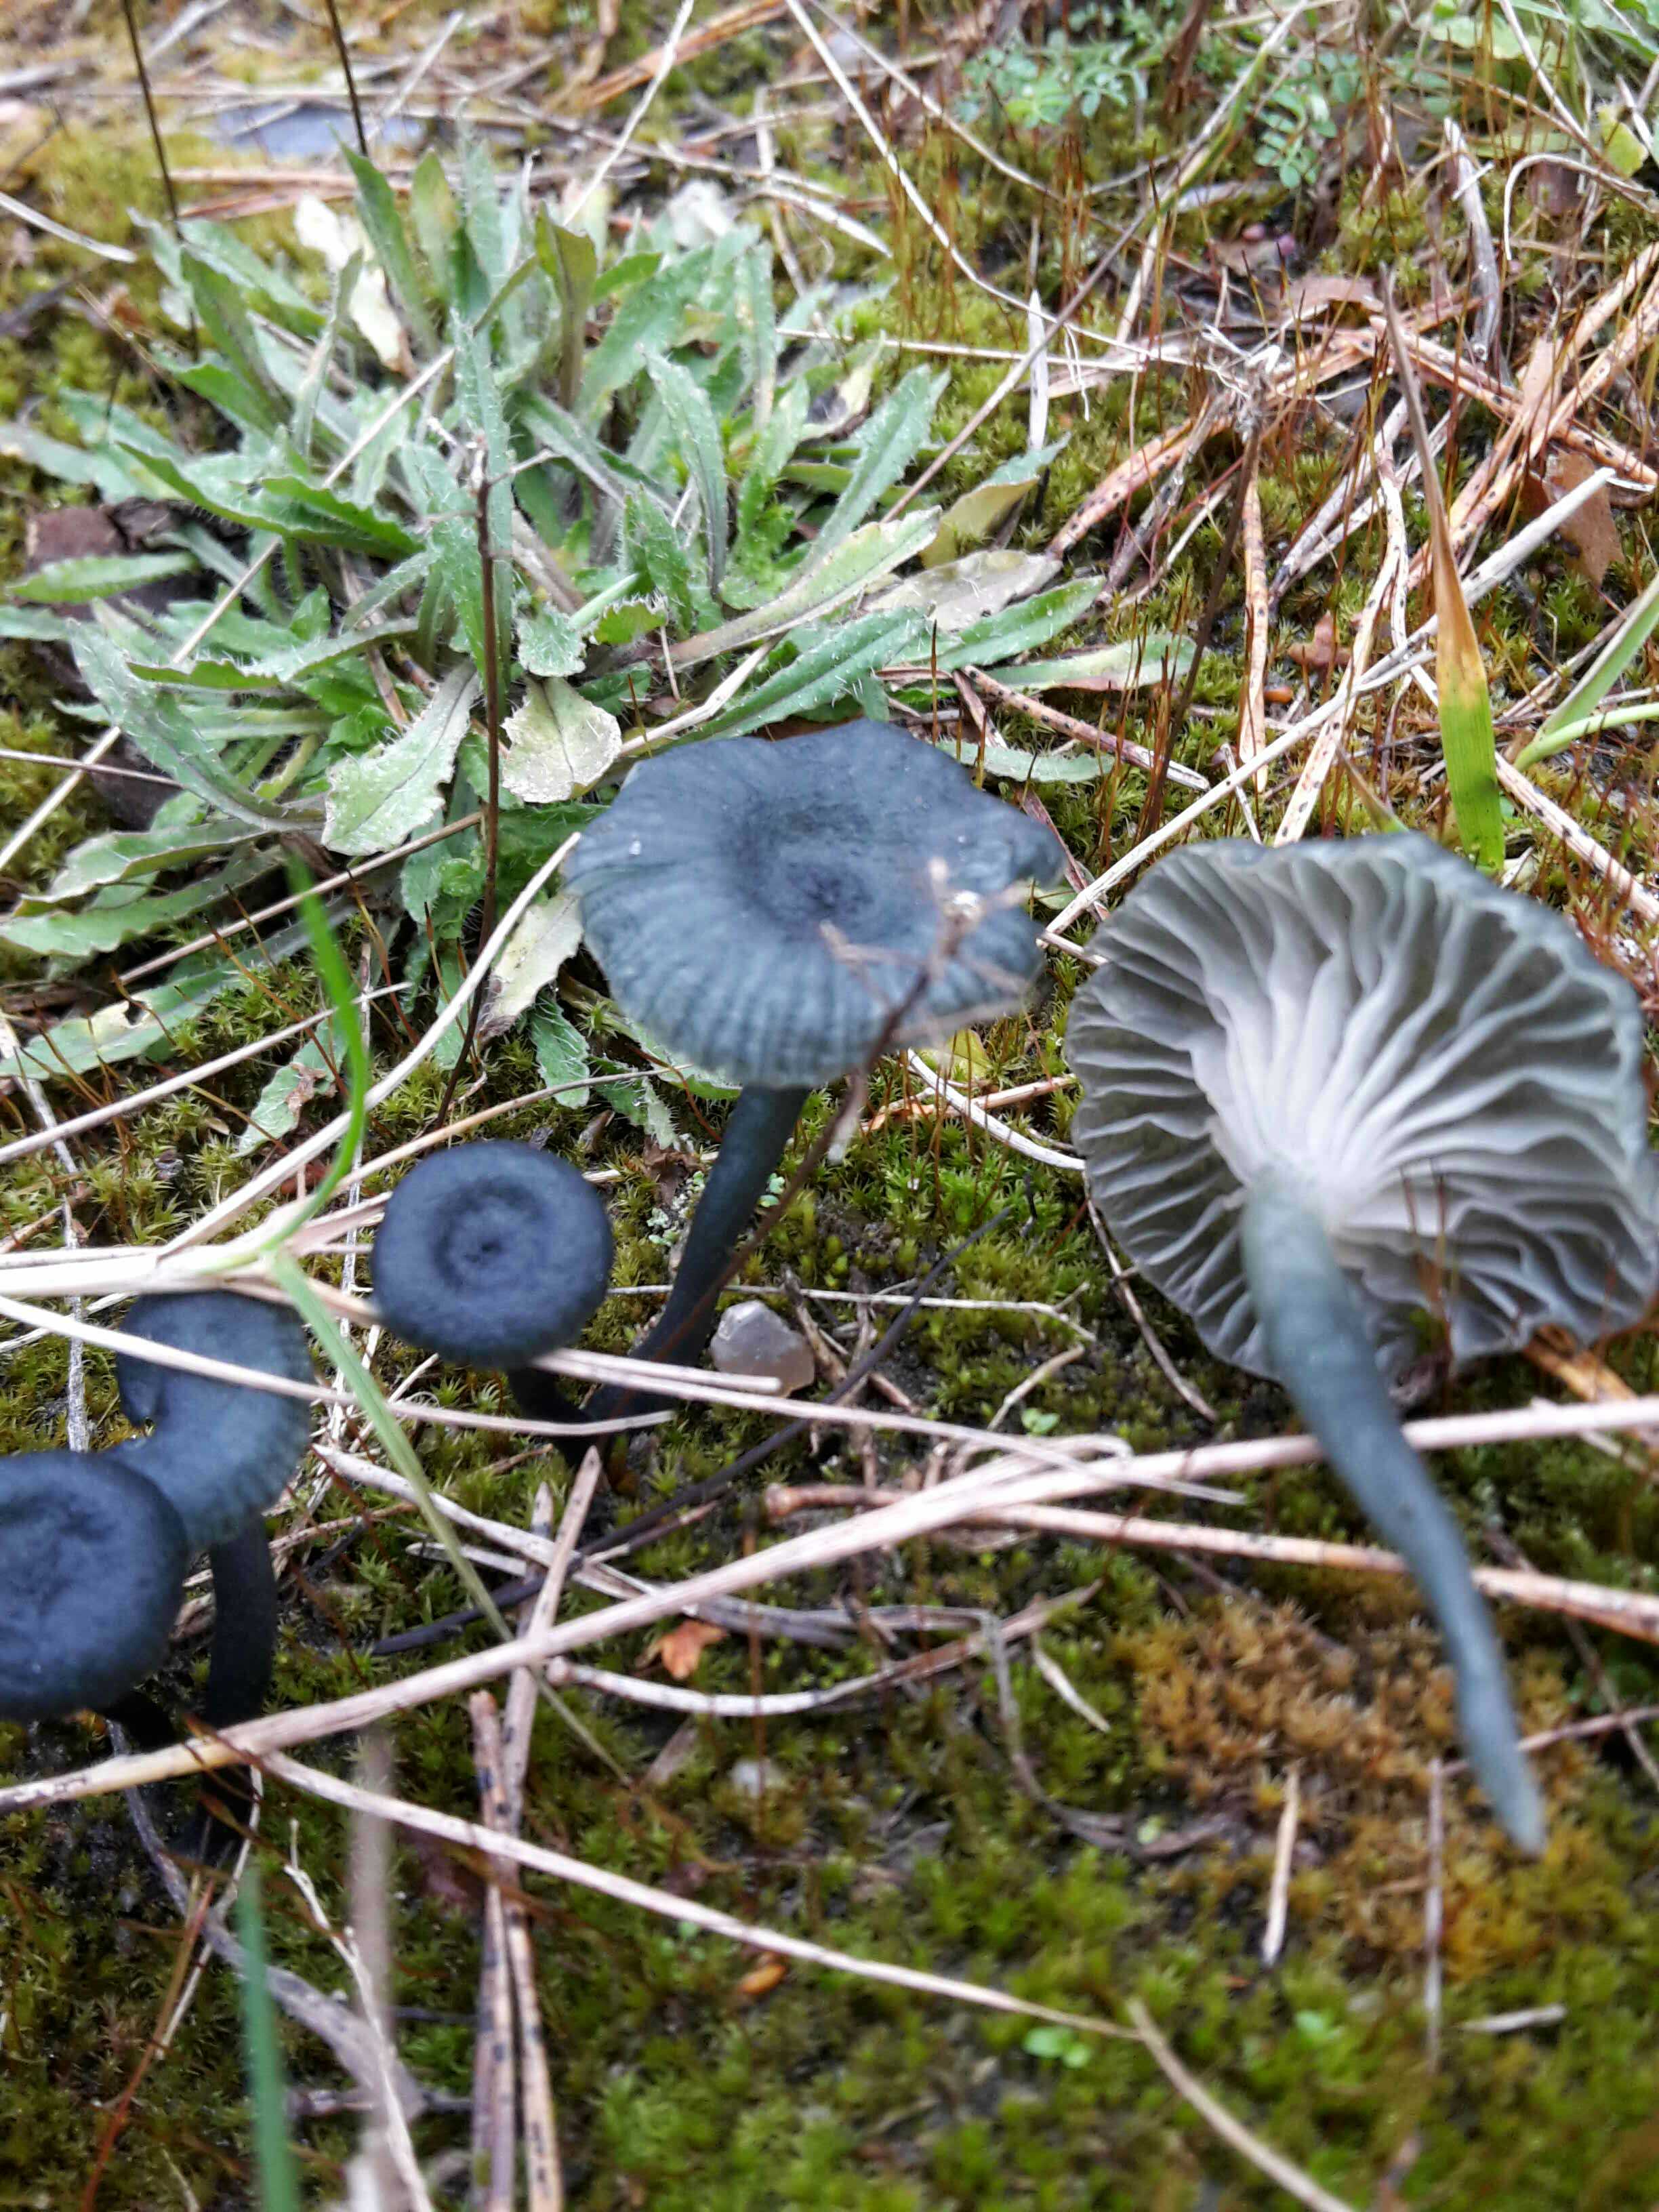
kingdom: Fungi
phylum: Basidiomycota
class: Agaricomycetes
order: Agaricales
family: Hygrophoraceae
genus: Arrhenia
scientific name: Arrhenia chlorocyanea
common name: blågrøn fontænehat
